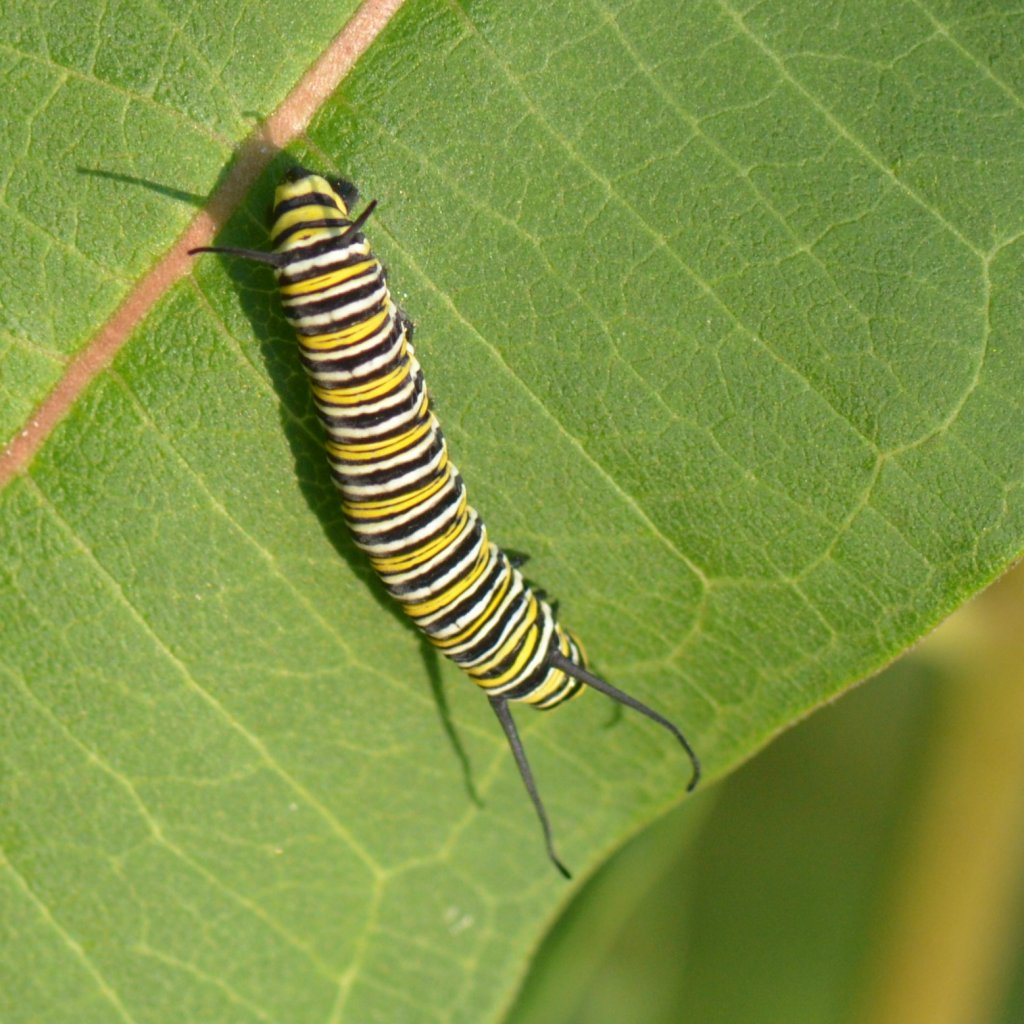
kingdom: Animalia
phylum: Arthropoda
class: Insecta
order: Lepidoptera
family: Nymphalidae
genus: Danaus
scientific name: Danaus plexippus
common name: Monarch
